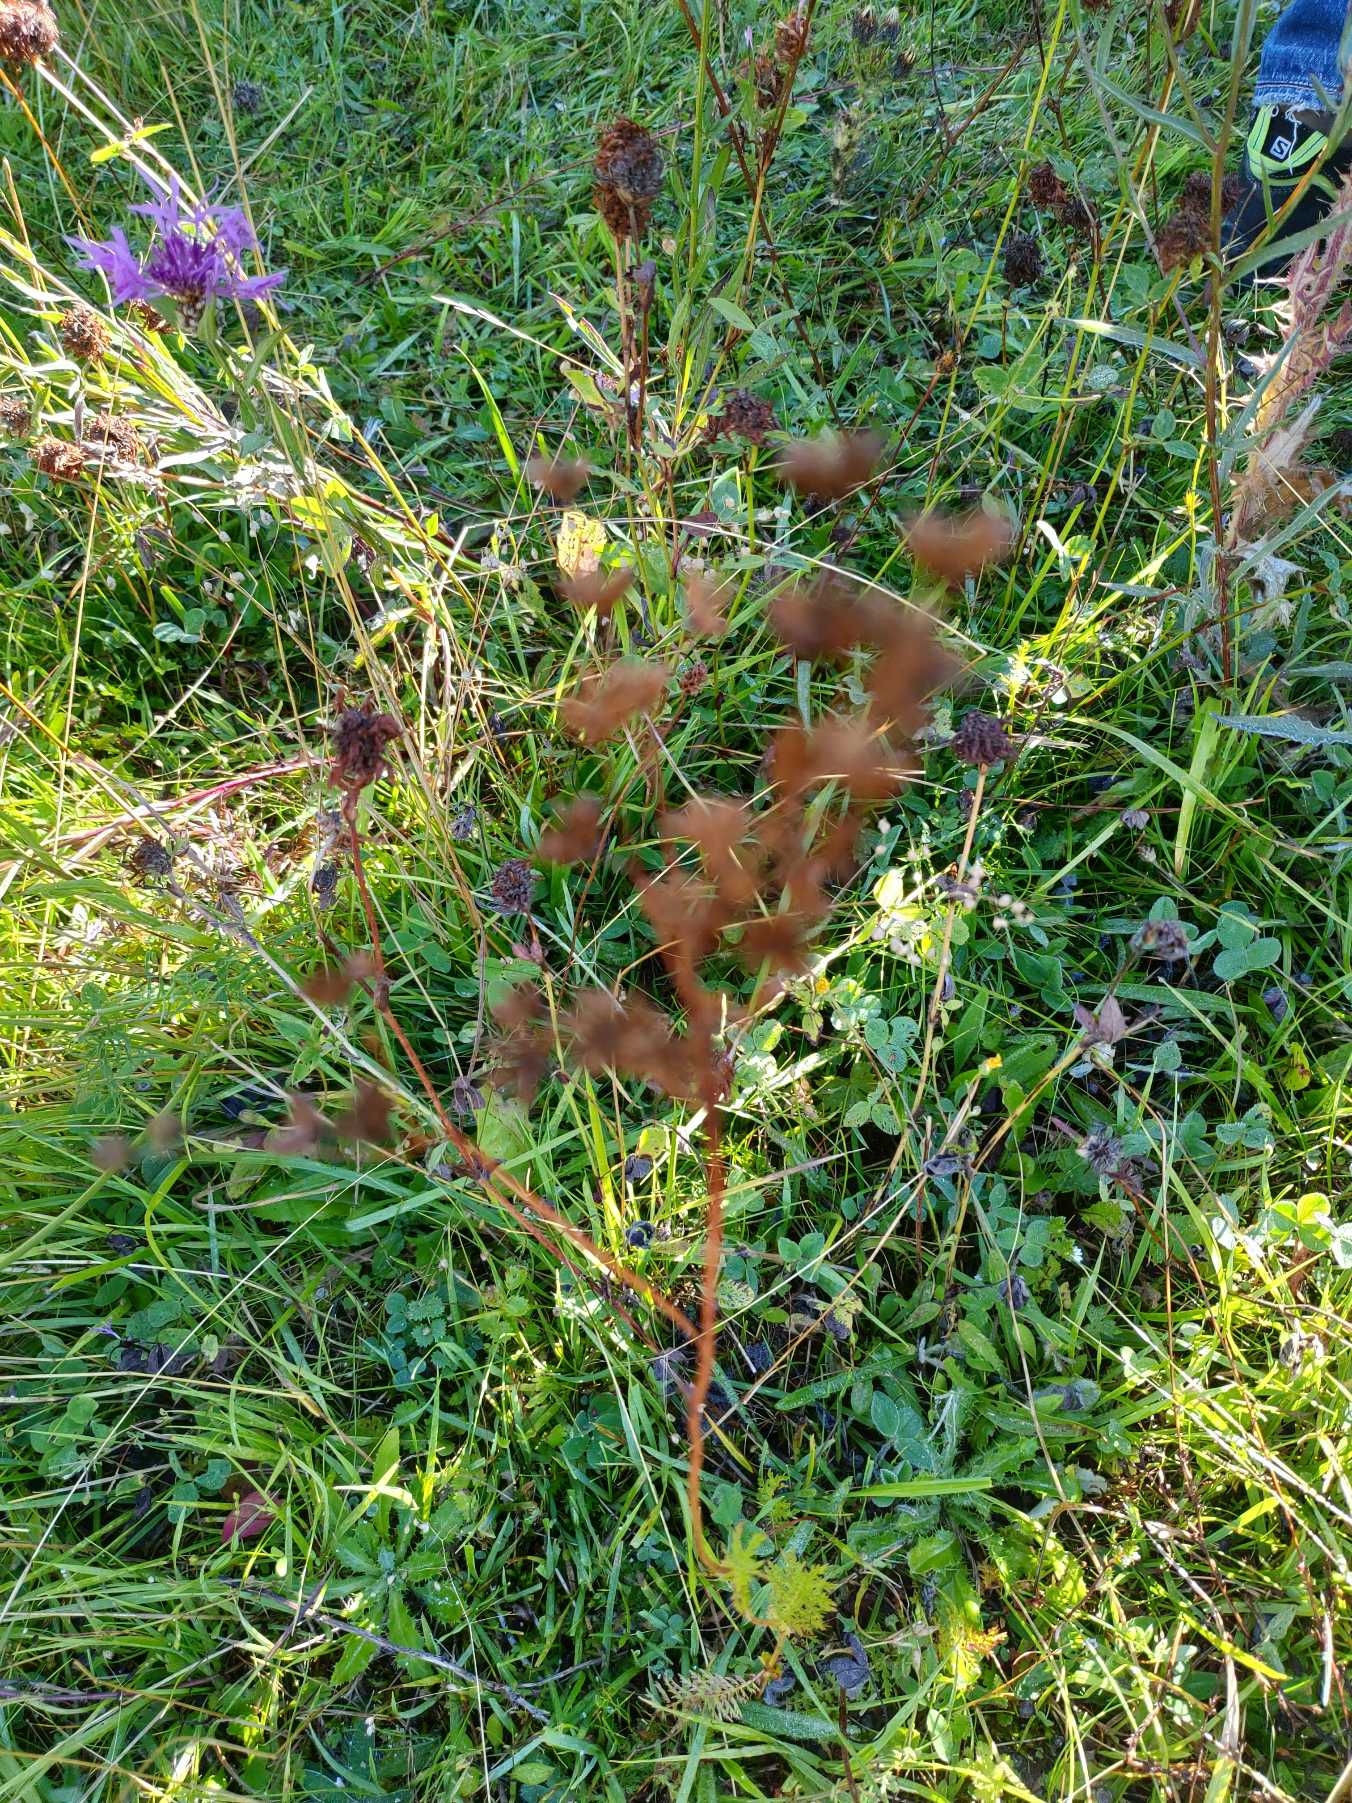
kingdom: Plantae
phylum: Tracheophyta
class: Magnoliopsida
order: Rosales
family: Rosaceae
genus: Filipendula
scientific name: Filipendula vulgaris
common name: Knoldet mjødurt
